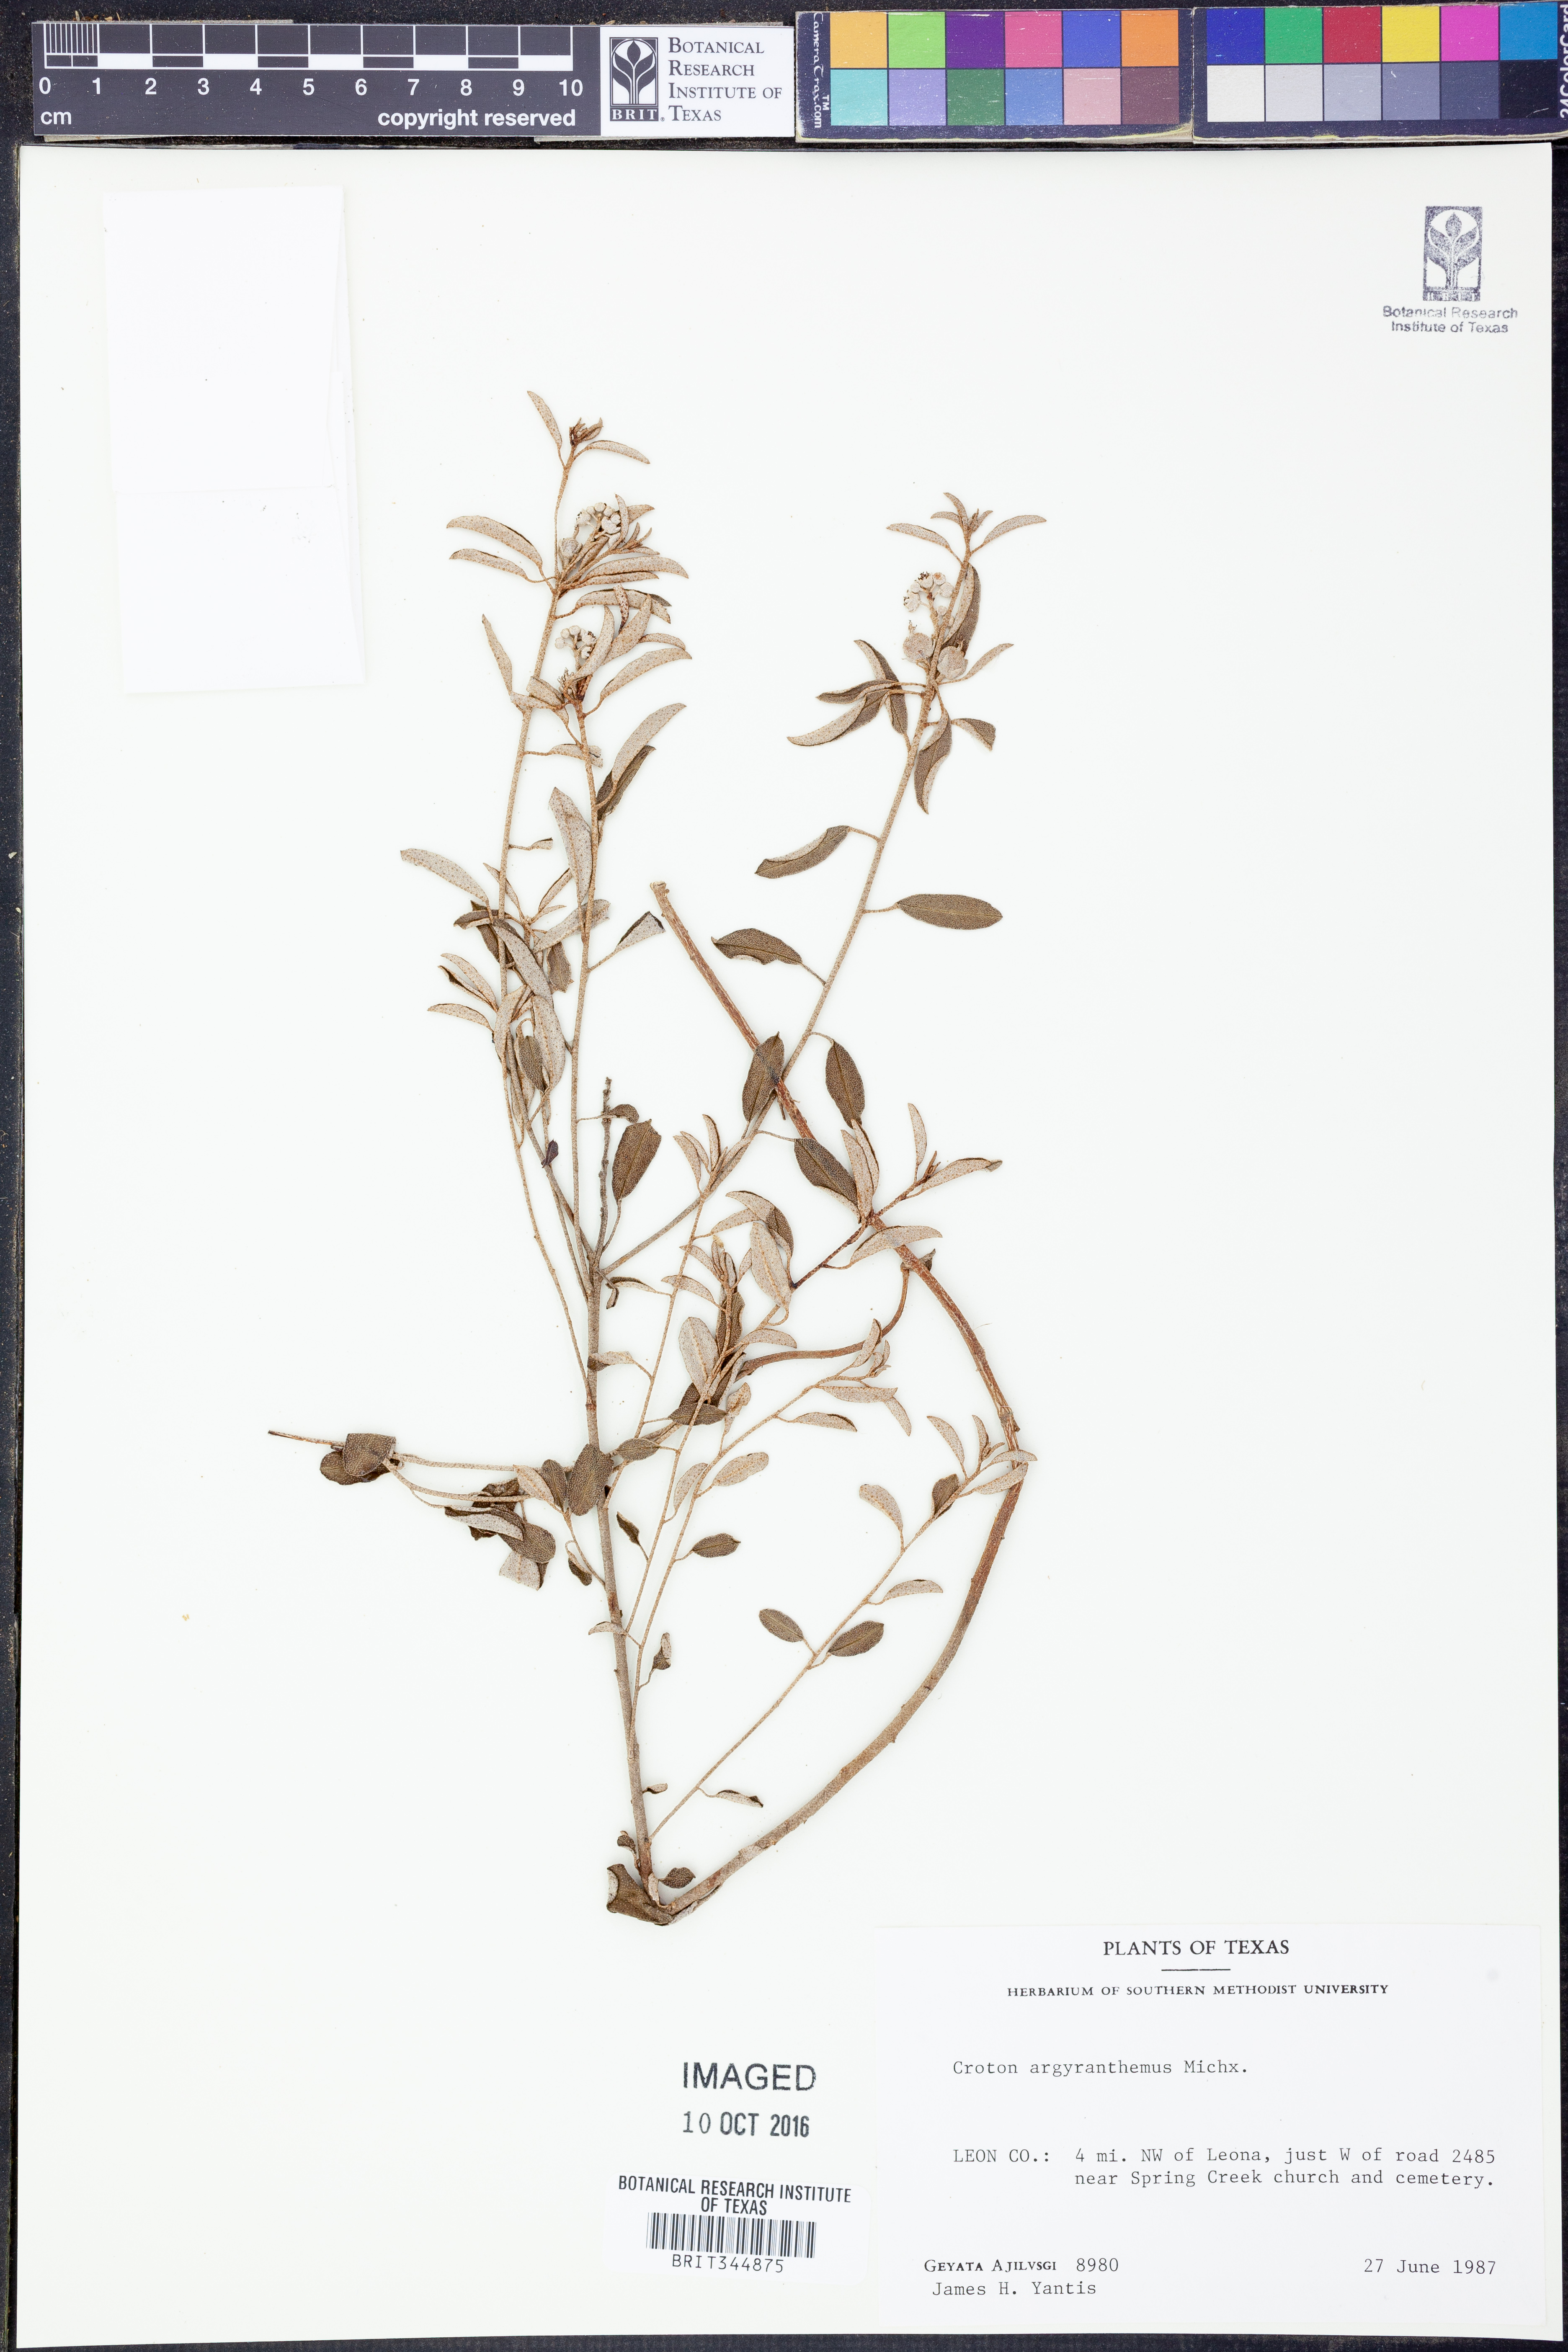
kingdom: Plantae
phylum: Tracheophyta
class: Magnoliopsida
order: Malpighiales
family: Euphorbiaceae
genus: Croton
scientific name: Croton argyranthemus
